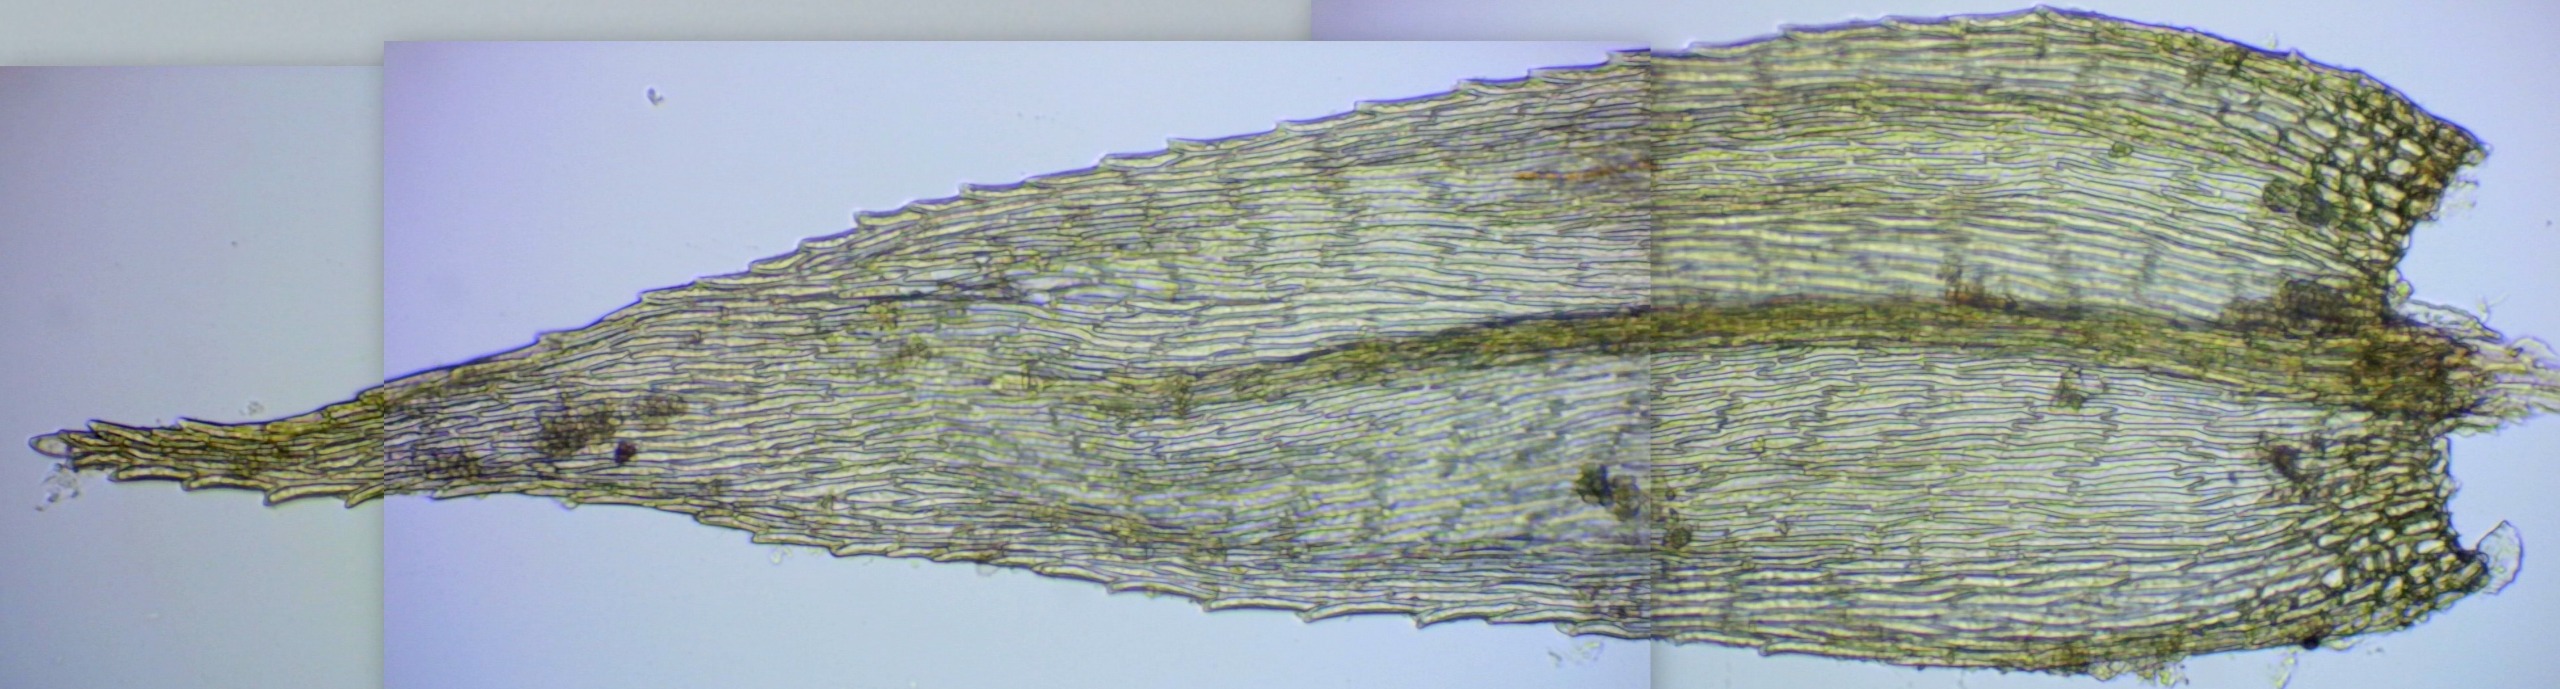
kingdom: Plantae
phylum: Bryophyta
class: Bryopsida
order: Hypnales
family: Brachytheciaceae
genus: Brachytheciastrum
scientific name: Brachytheciastrum velutinum
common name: Fløjls-kortkapsel
